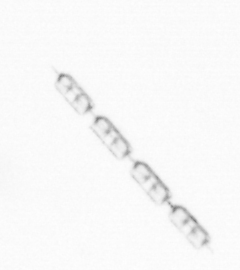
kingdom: Chromista
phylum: Ochrophyta
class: Bacillariophyceae
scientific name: Bacillariophyceae
